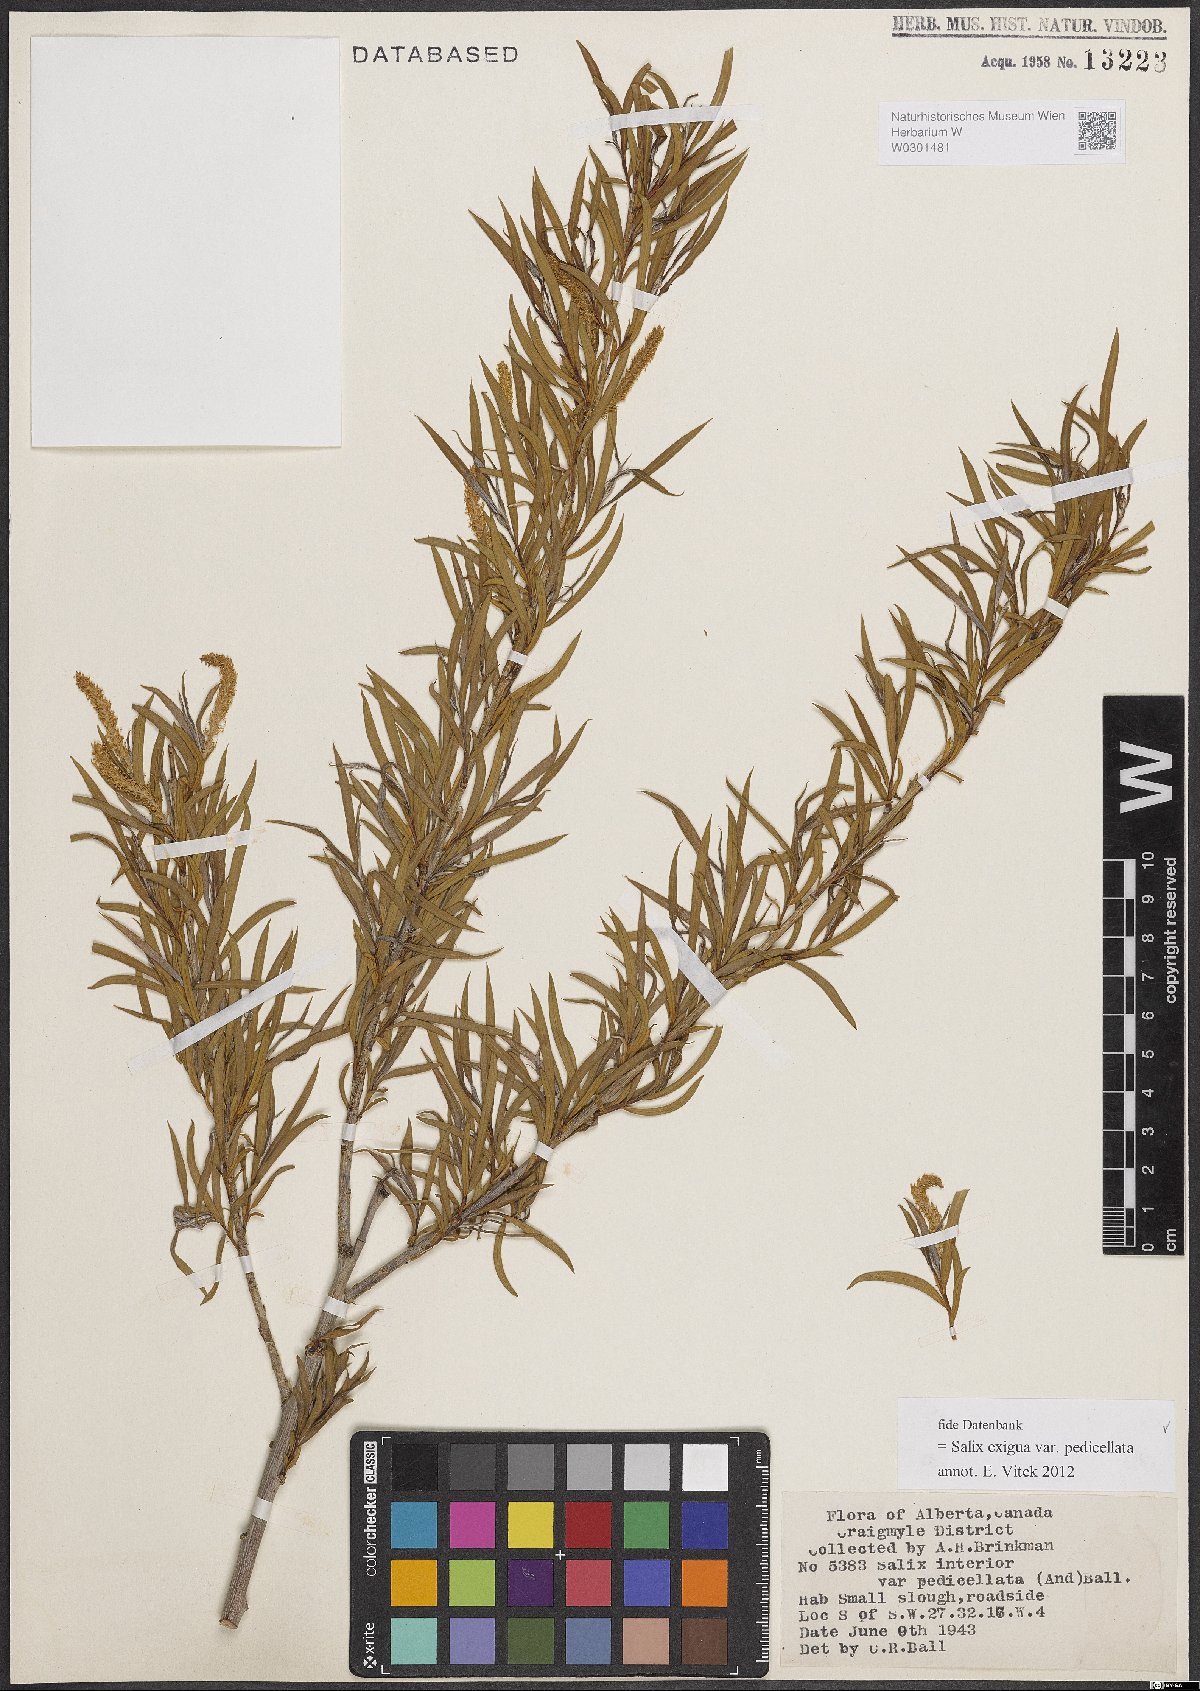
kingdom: Plantae
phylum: Tracheophyta
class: Magnoliopsida
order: Malpighiales
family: Salicaceae
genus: Salix
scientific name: Salix interior
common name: Sandbar willow
